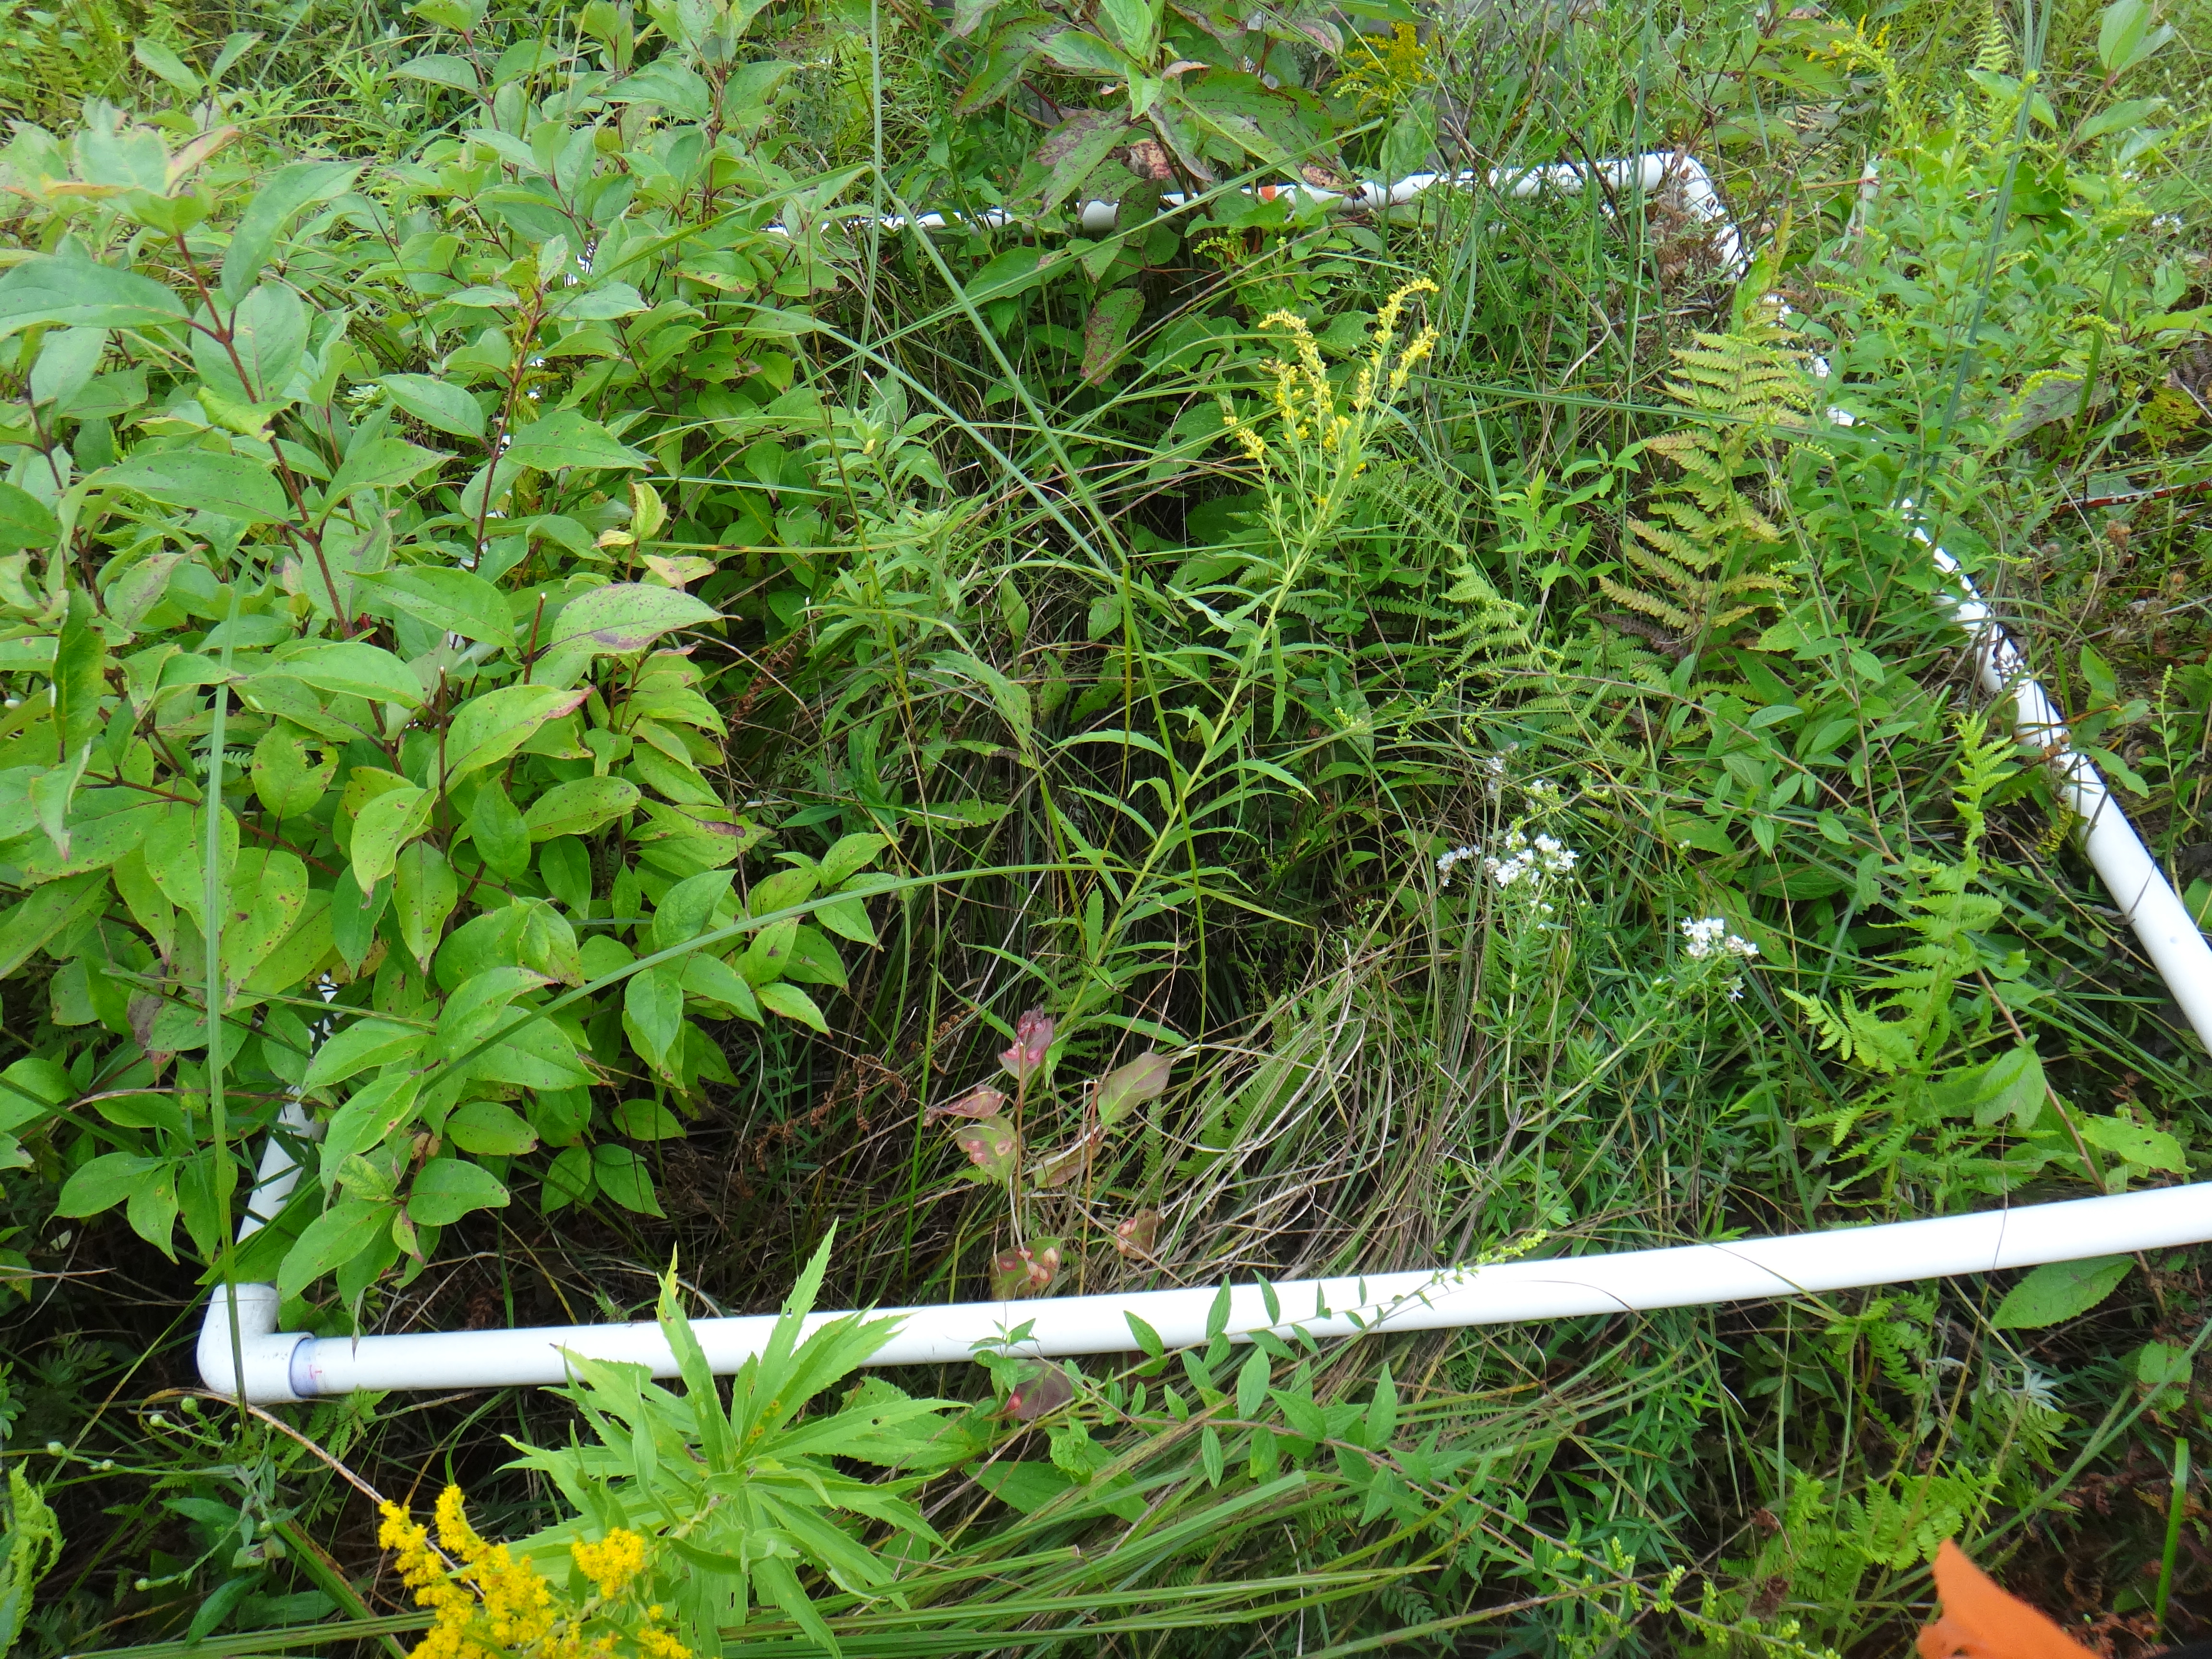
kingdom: Plantae
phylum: Tracheophyta
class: Liliopsida
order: Poales
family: Cyperaceae
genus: Carex
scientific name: Carex stricta
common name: Hummock sedge
